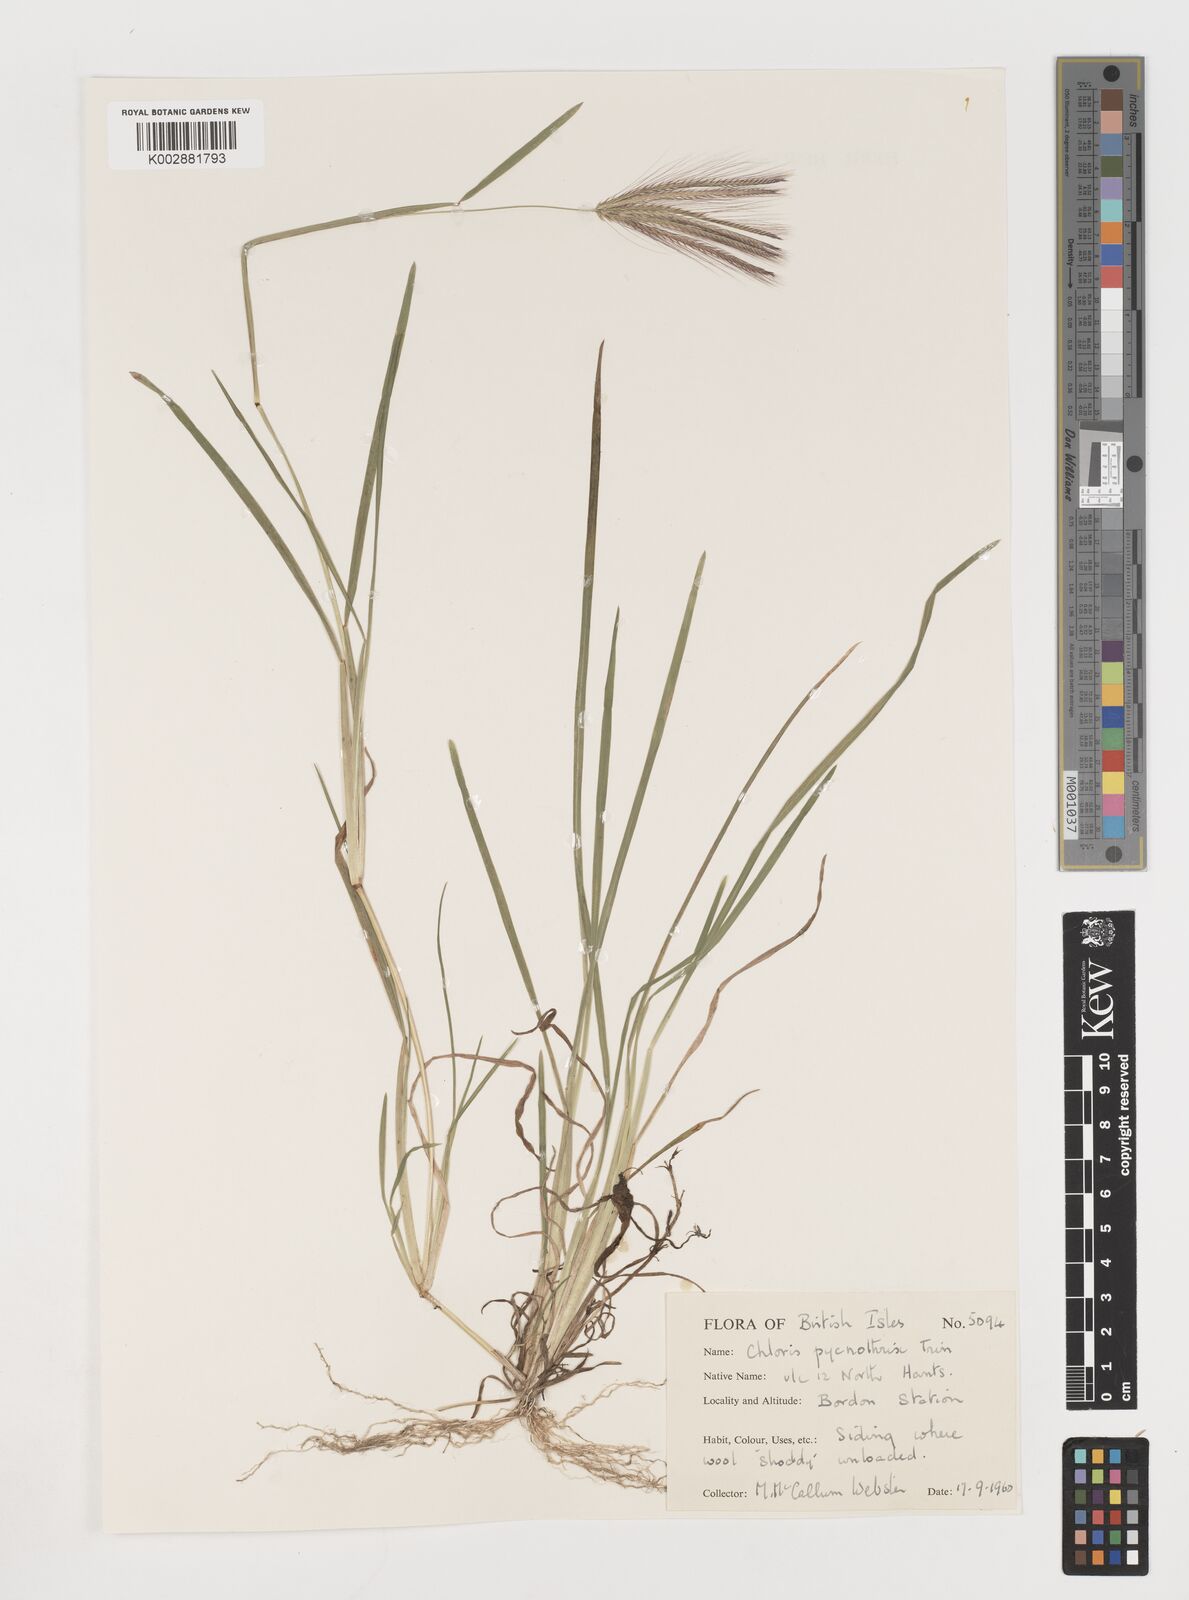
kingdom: Plantae
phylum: Tracheophyta
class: Liliopsida
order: Poales
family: Poaceae
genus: Chloris
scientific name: Chloris pycnothrix
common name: Spiderweb chloris
